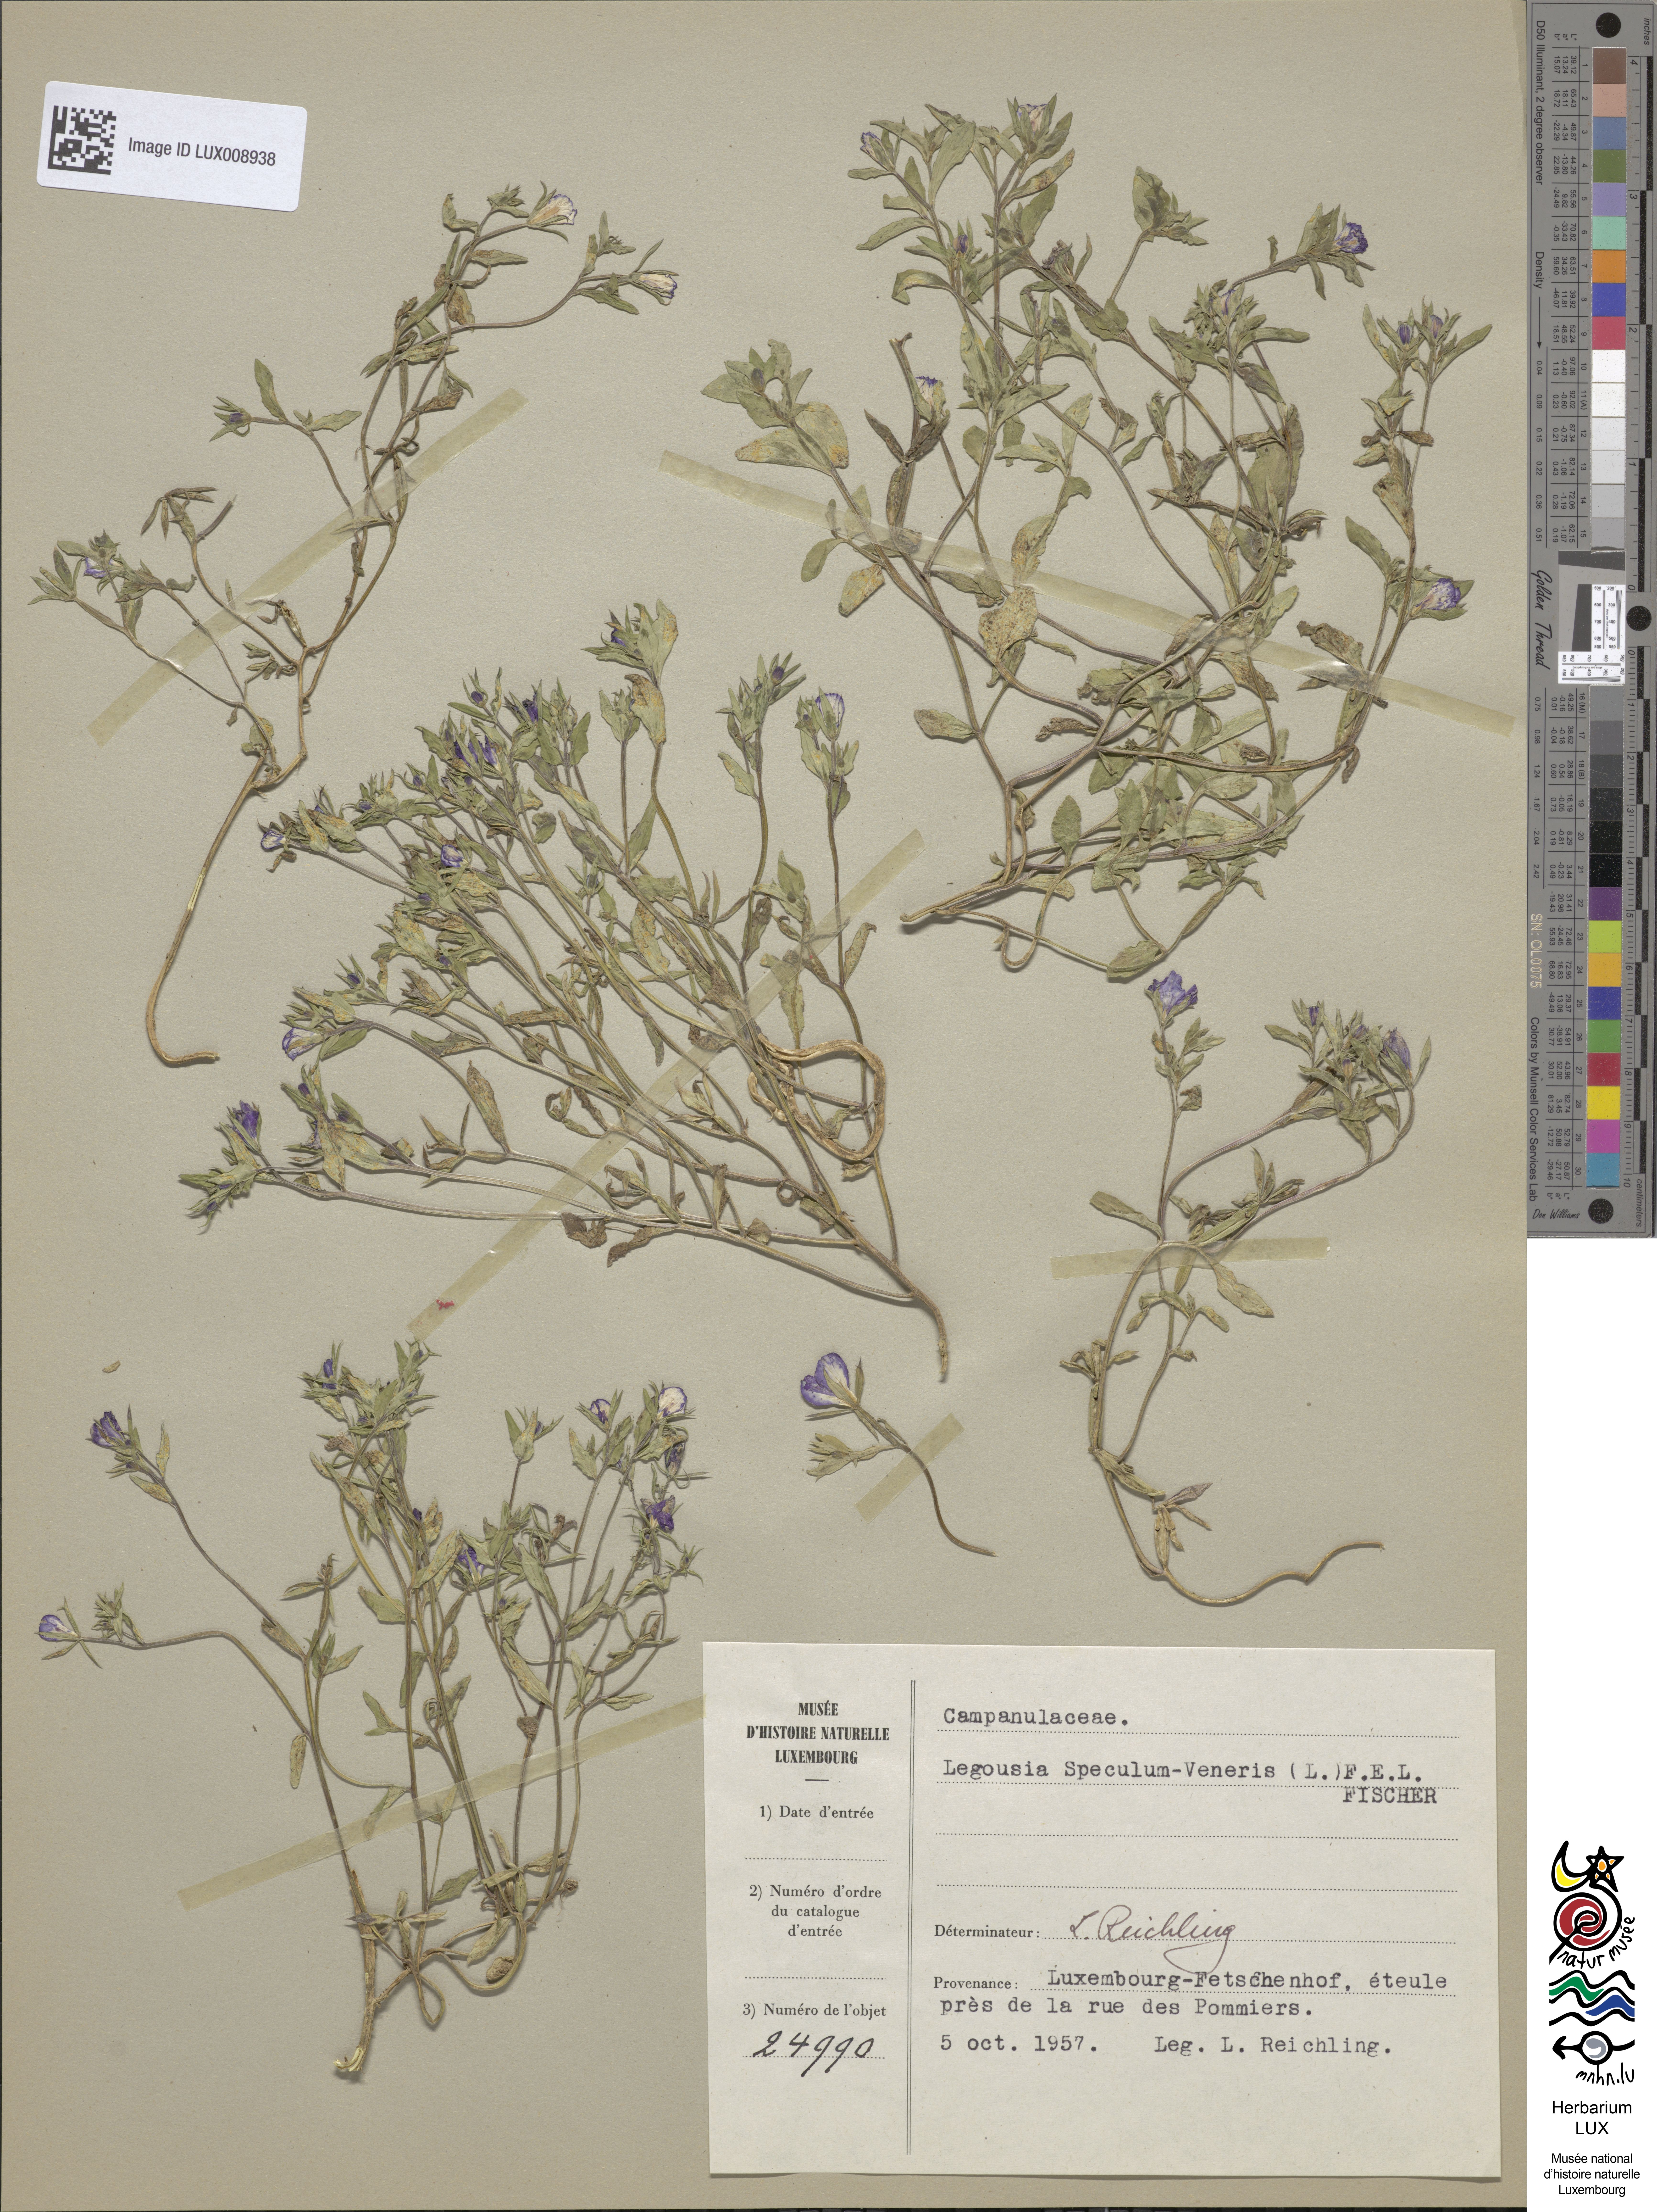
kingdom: Plantae
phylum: Tracheophyta
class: Magnoliopsida
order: Asterales
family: Campanulaceae
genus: Legousia
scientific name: Legousia speculum-veneris
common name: Large venus's-looking-glass
